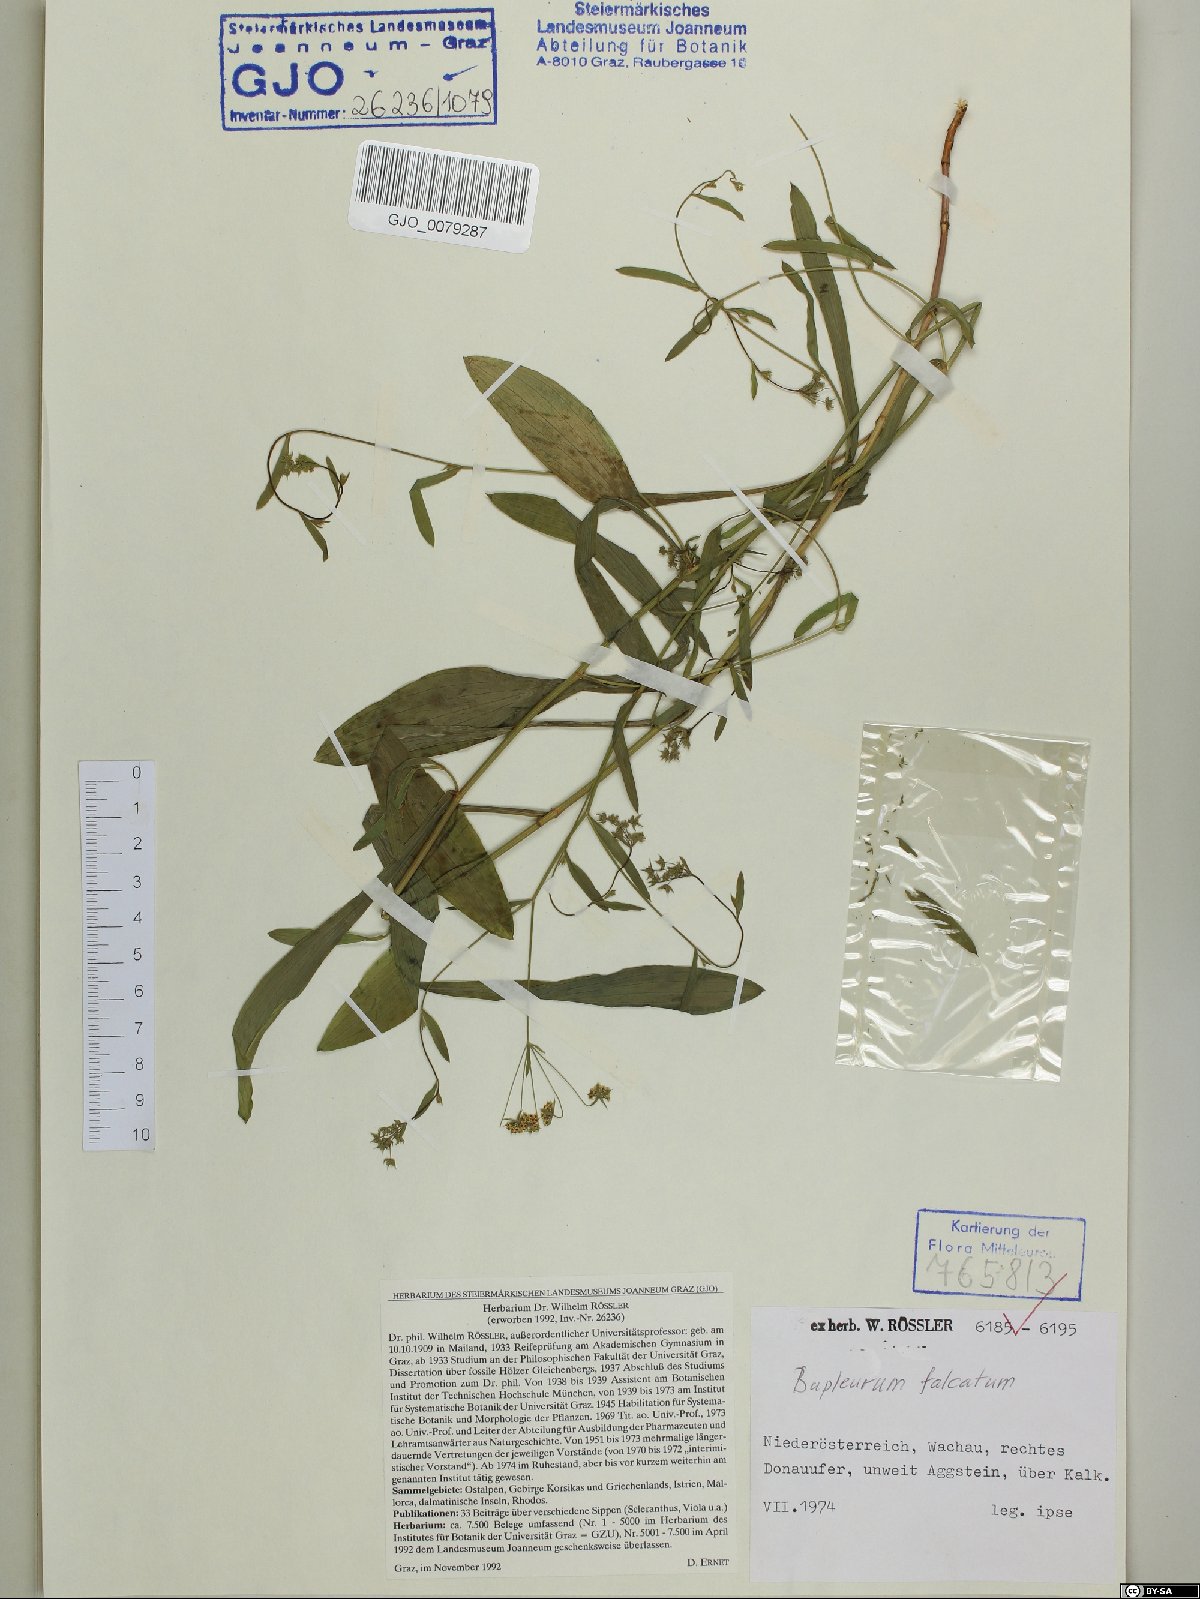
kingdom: Plantae
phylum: Tracheophyta
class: Magnoliopsida
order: Apiales
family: Apiaceae
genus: Bupleurum
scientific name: Bupleurum falcatum
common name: Sickle-leaved hare's-ear
